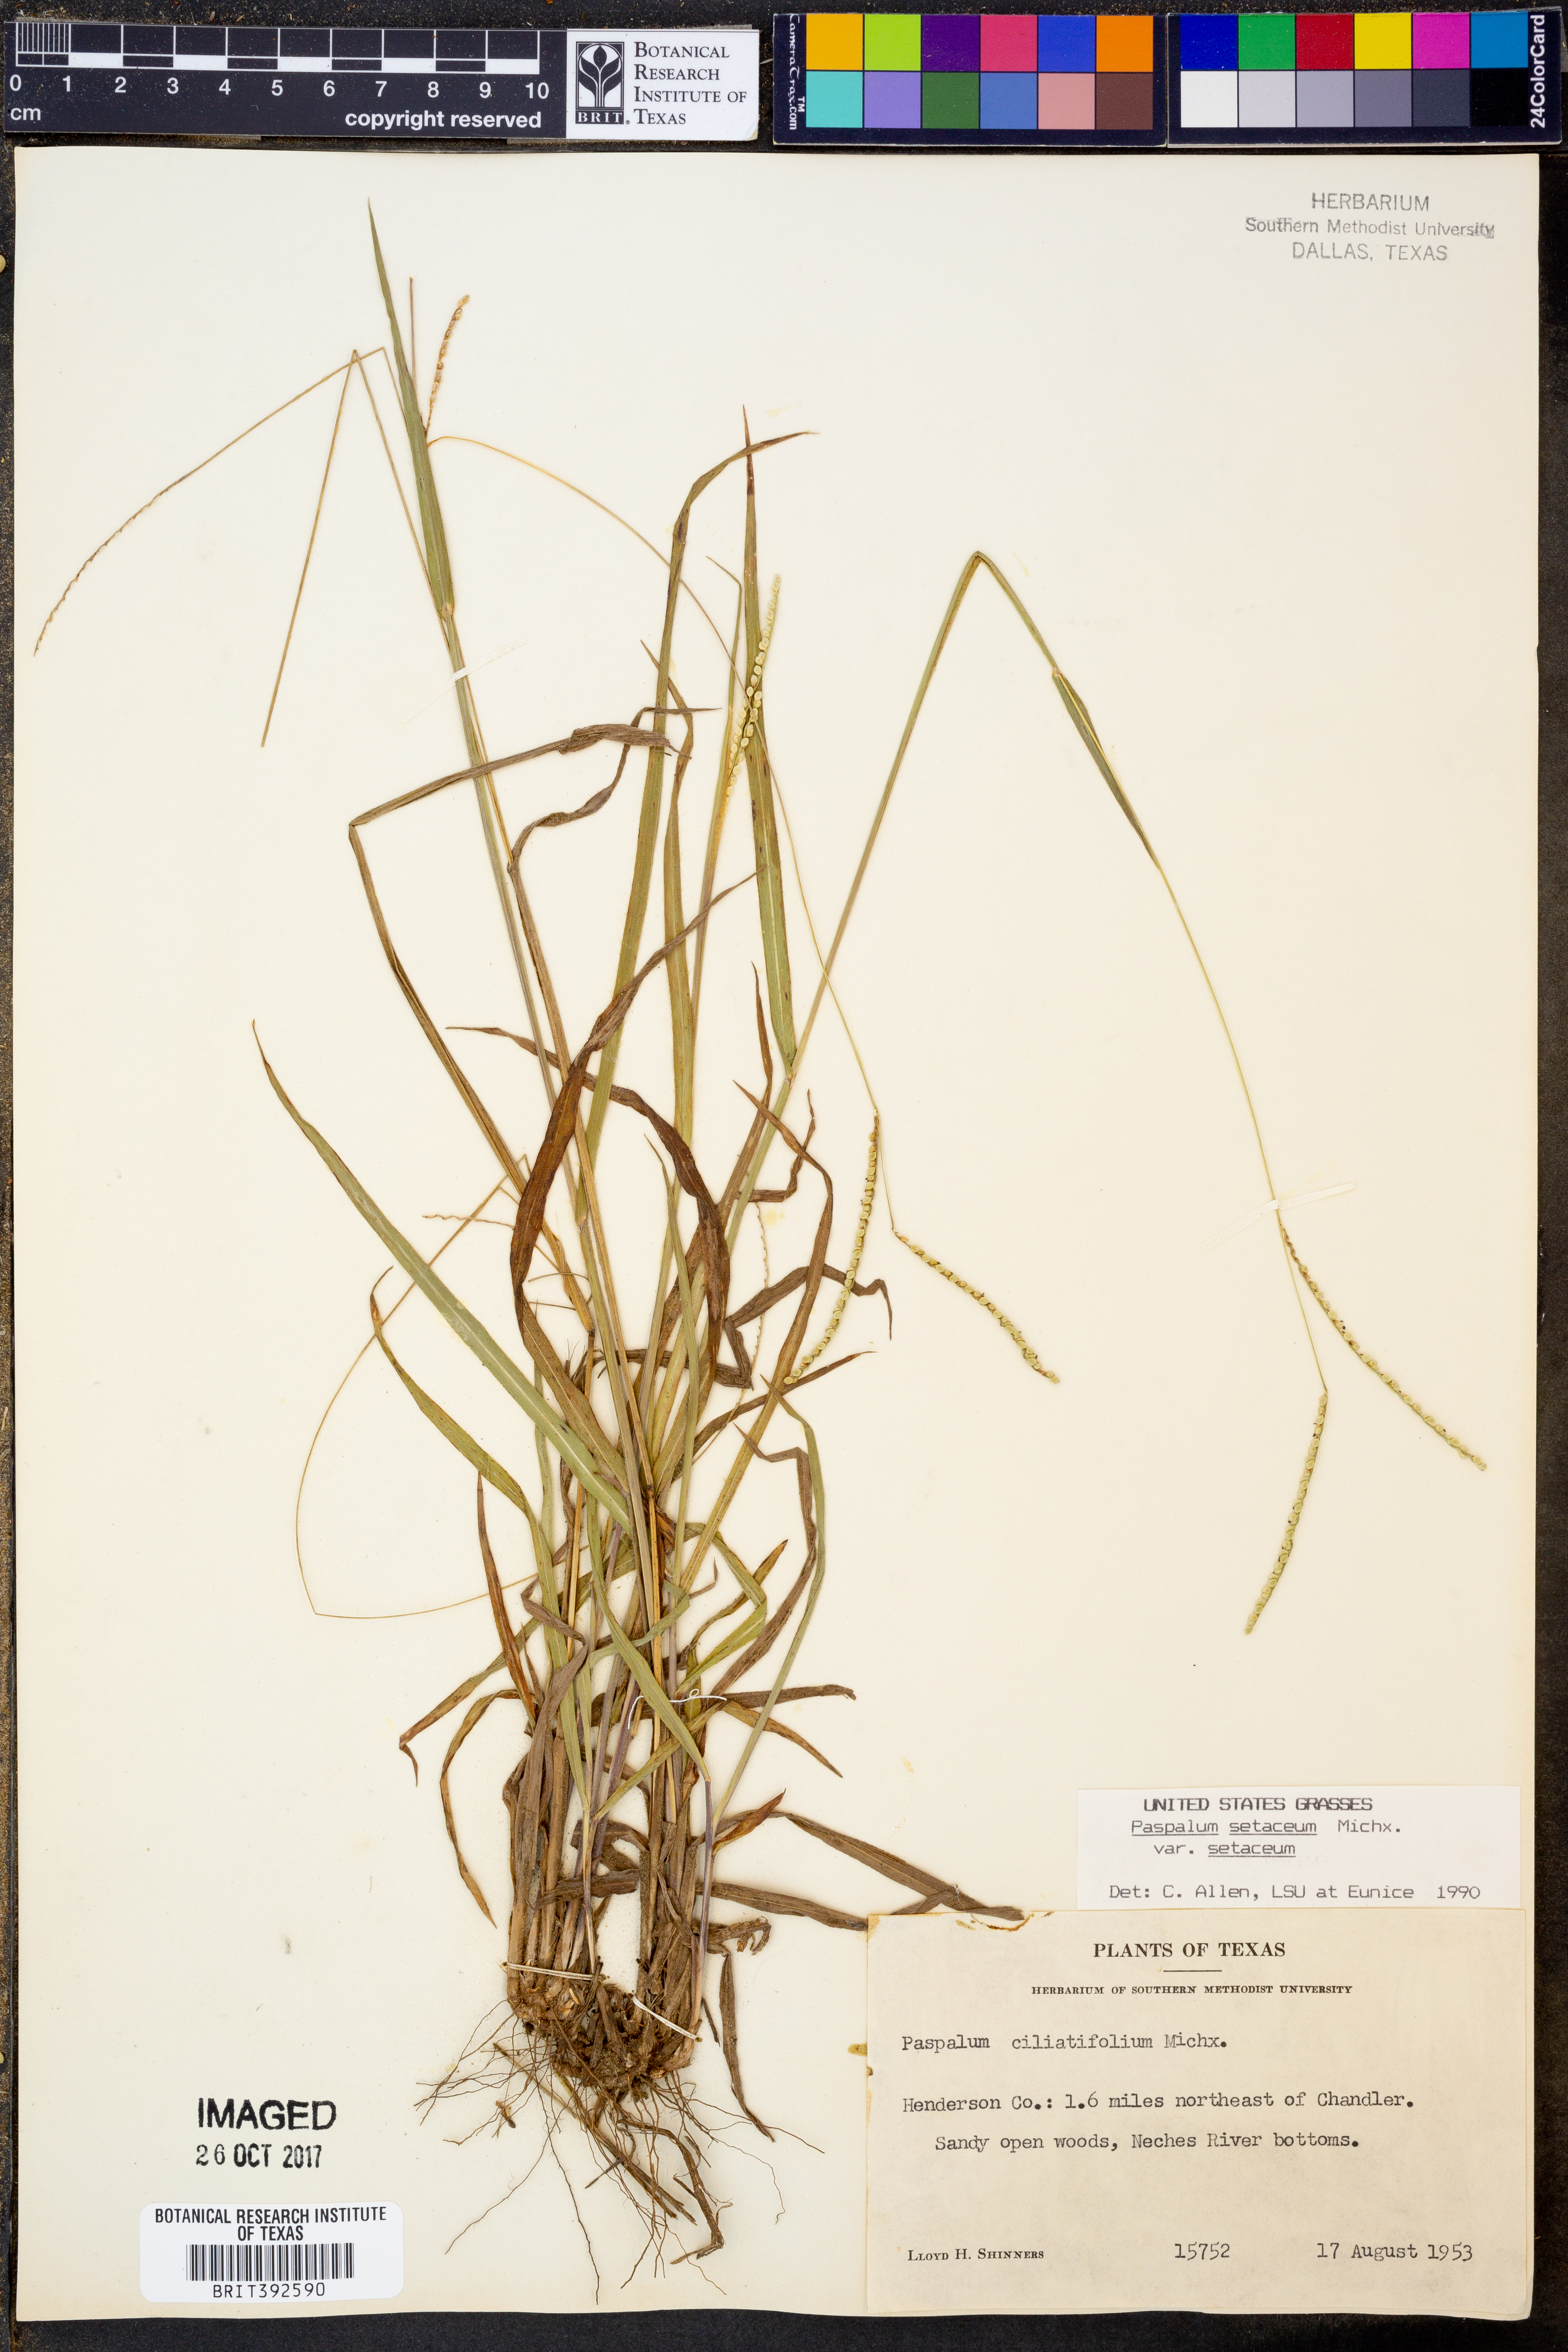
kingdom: Plantae
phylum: Tracheophyta
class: Liliopsida
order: Poales
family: Poaceae
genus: Paspalum
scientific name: Paspalum setaceum
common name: Slender paspalum
